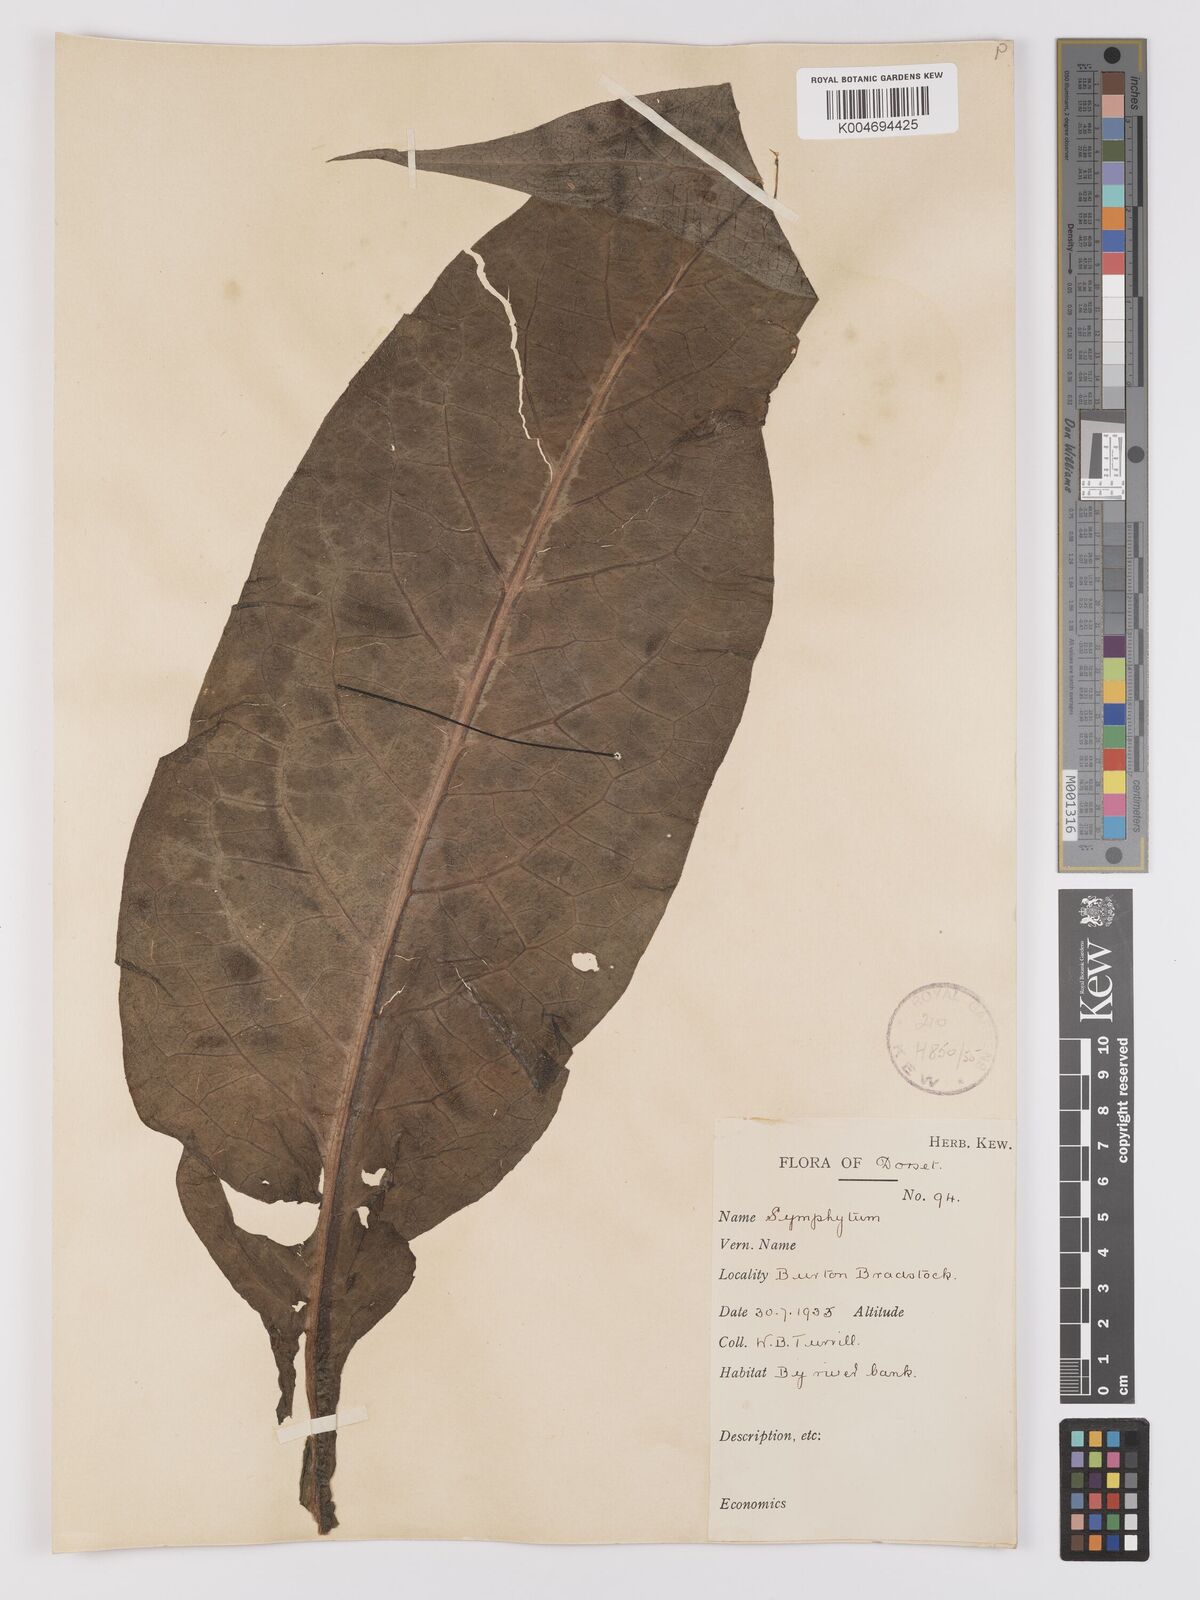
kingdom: Plantae
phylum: Tracheophyta
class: Magnoliopsida
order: Boraginales
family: Boraginaceae
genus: Symphytum
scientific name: Symphytum officinale
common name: Common comfrey
